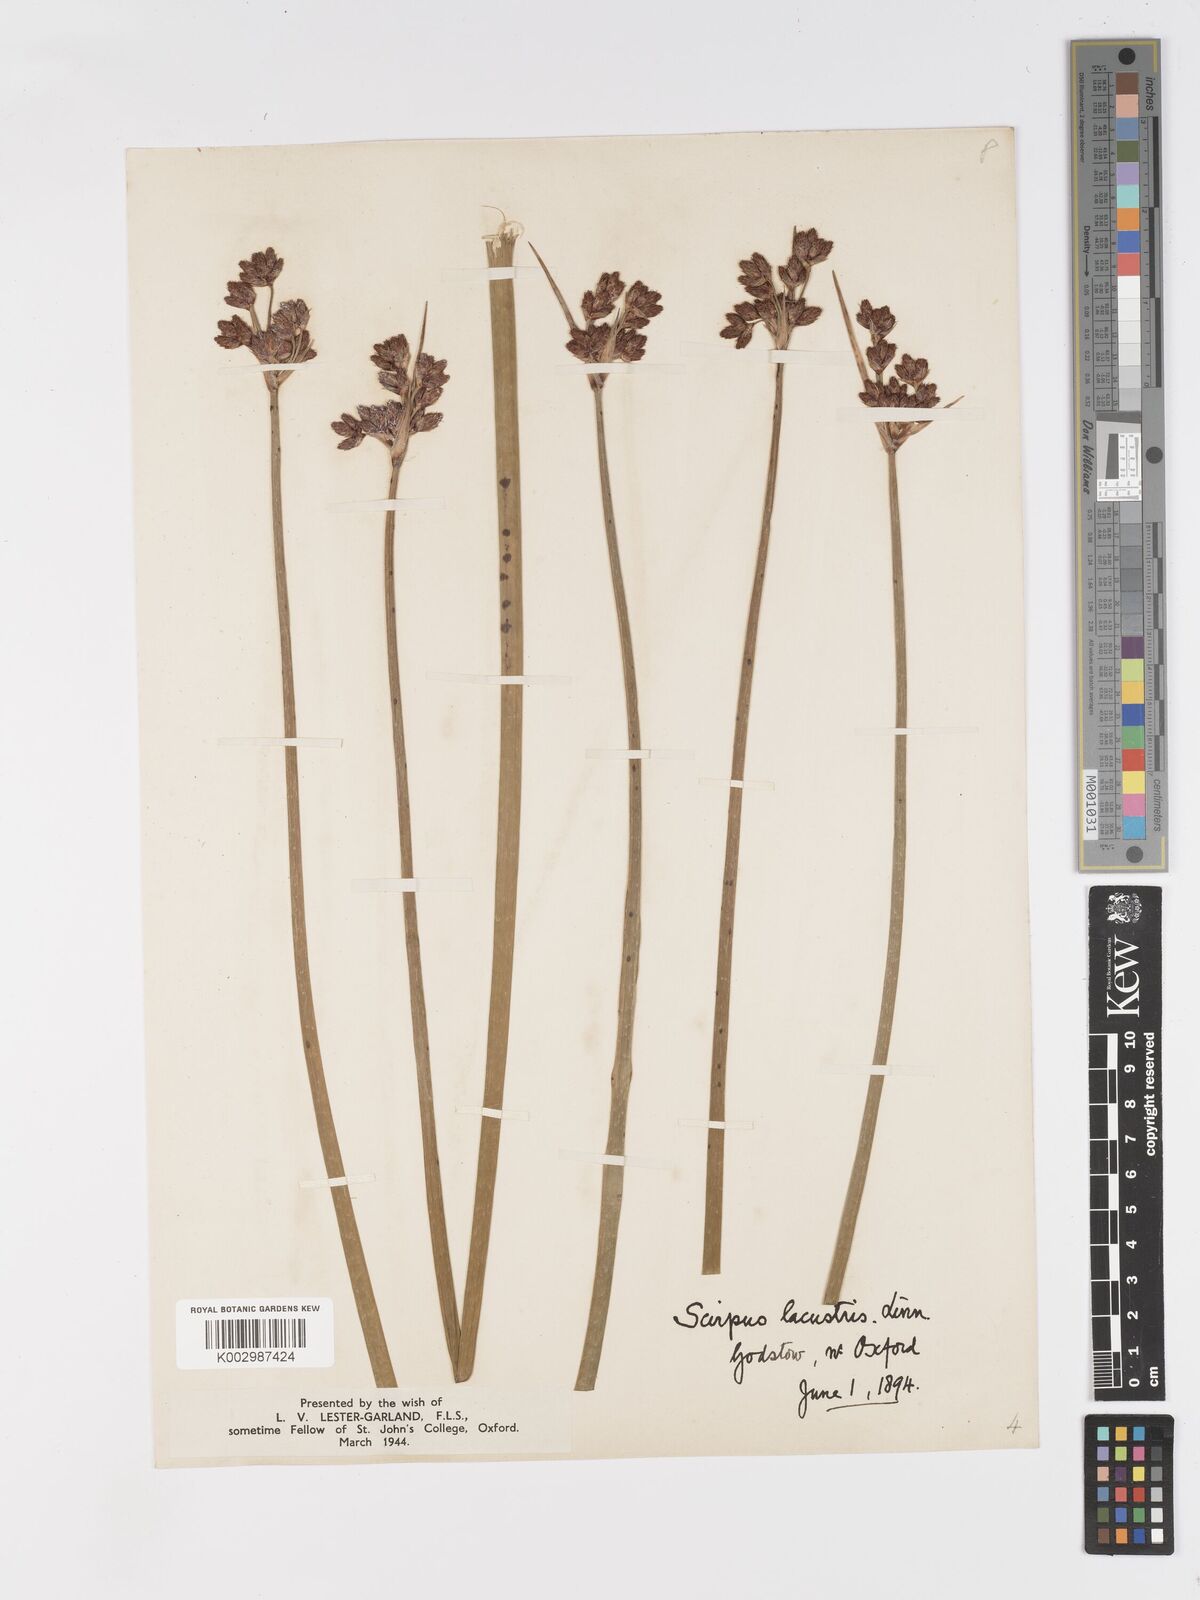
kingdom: Plantae
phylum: Tracheophyta
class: Liliopsida
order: Poales
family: Cyperaceae
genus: Schoenoplectus
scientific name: Schoenoplectus lacustris
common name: Common club-rush
